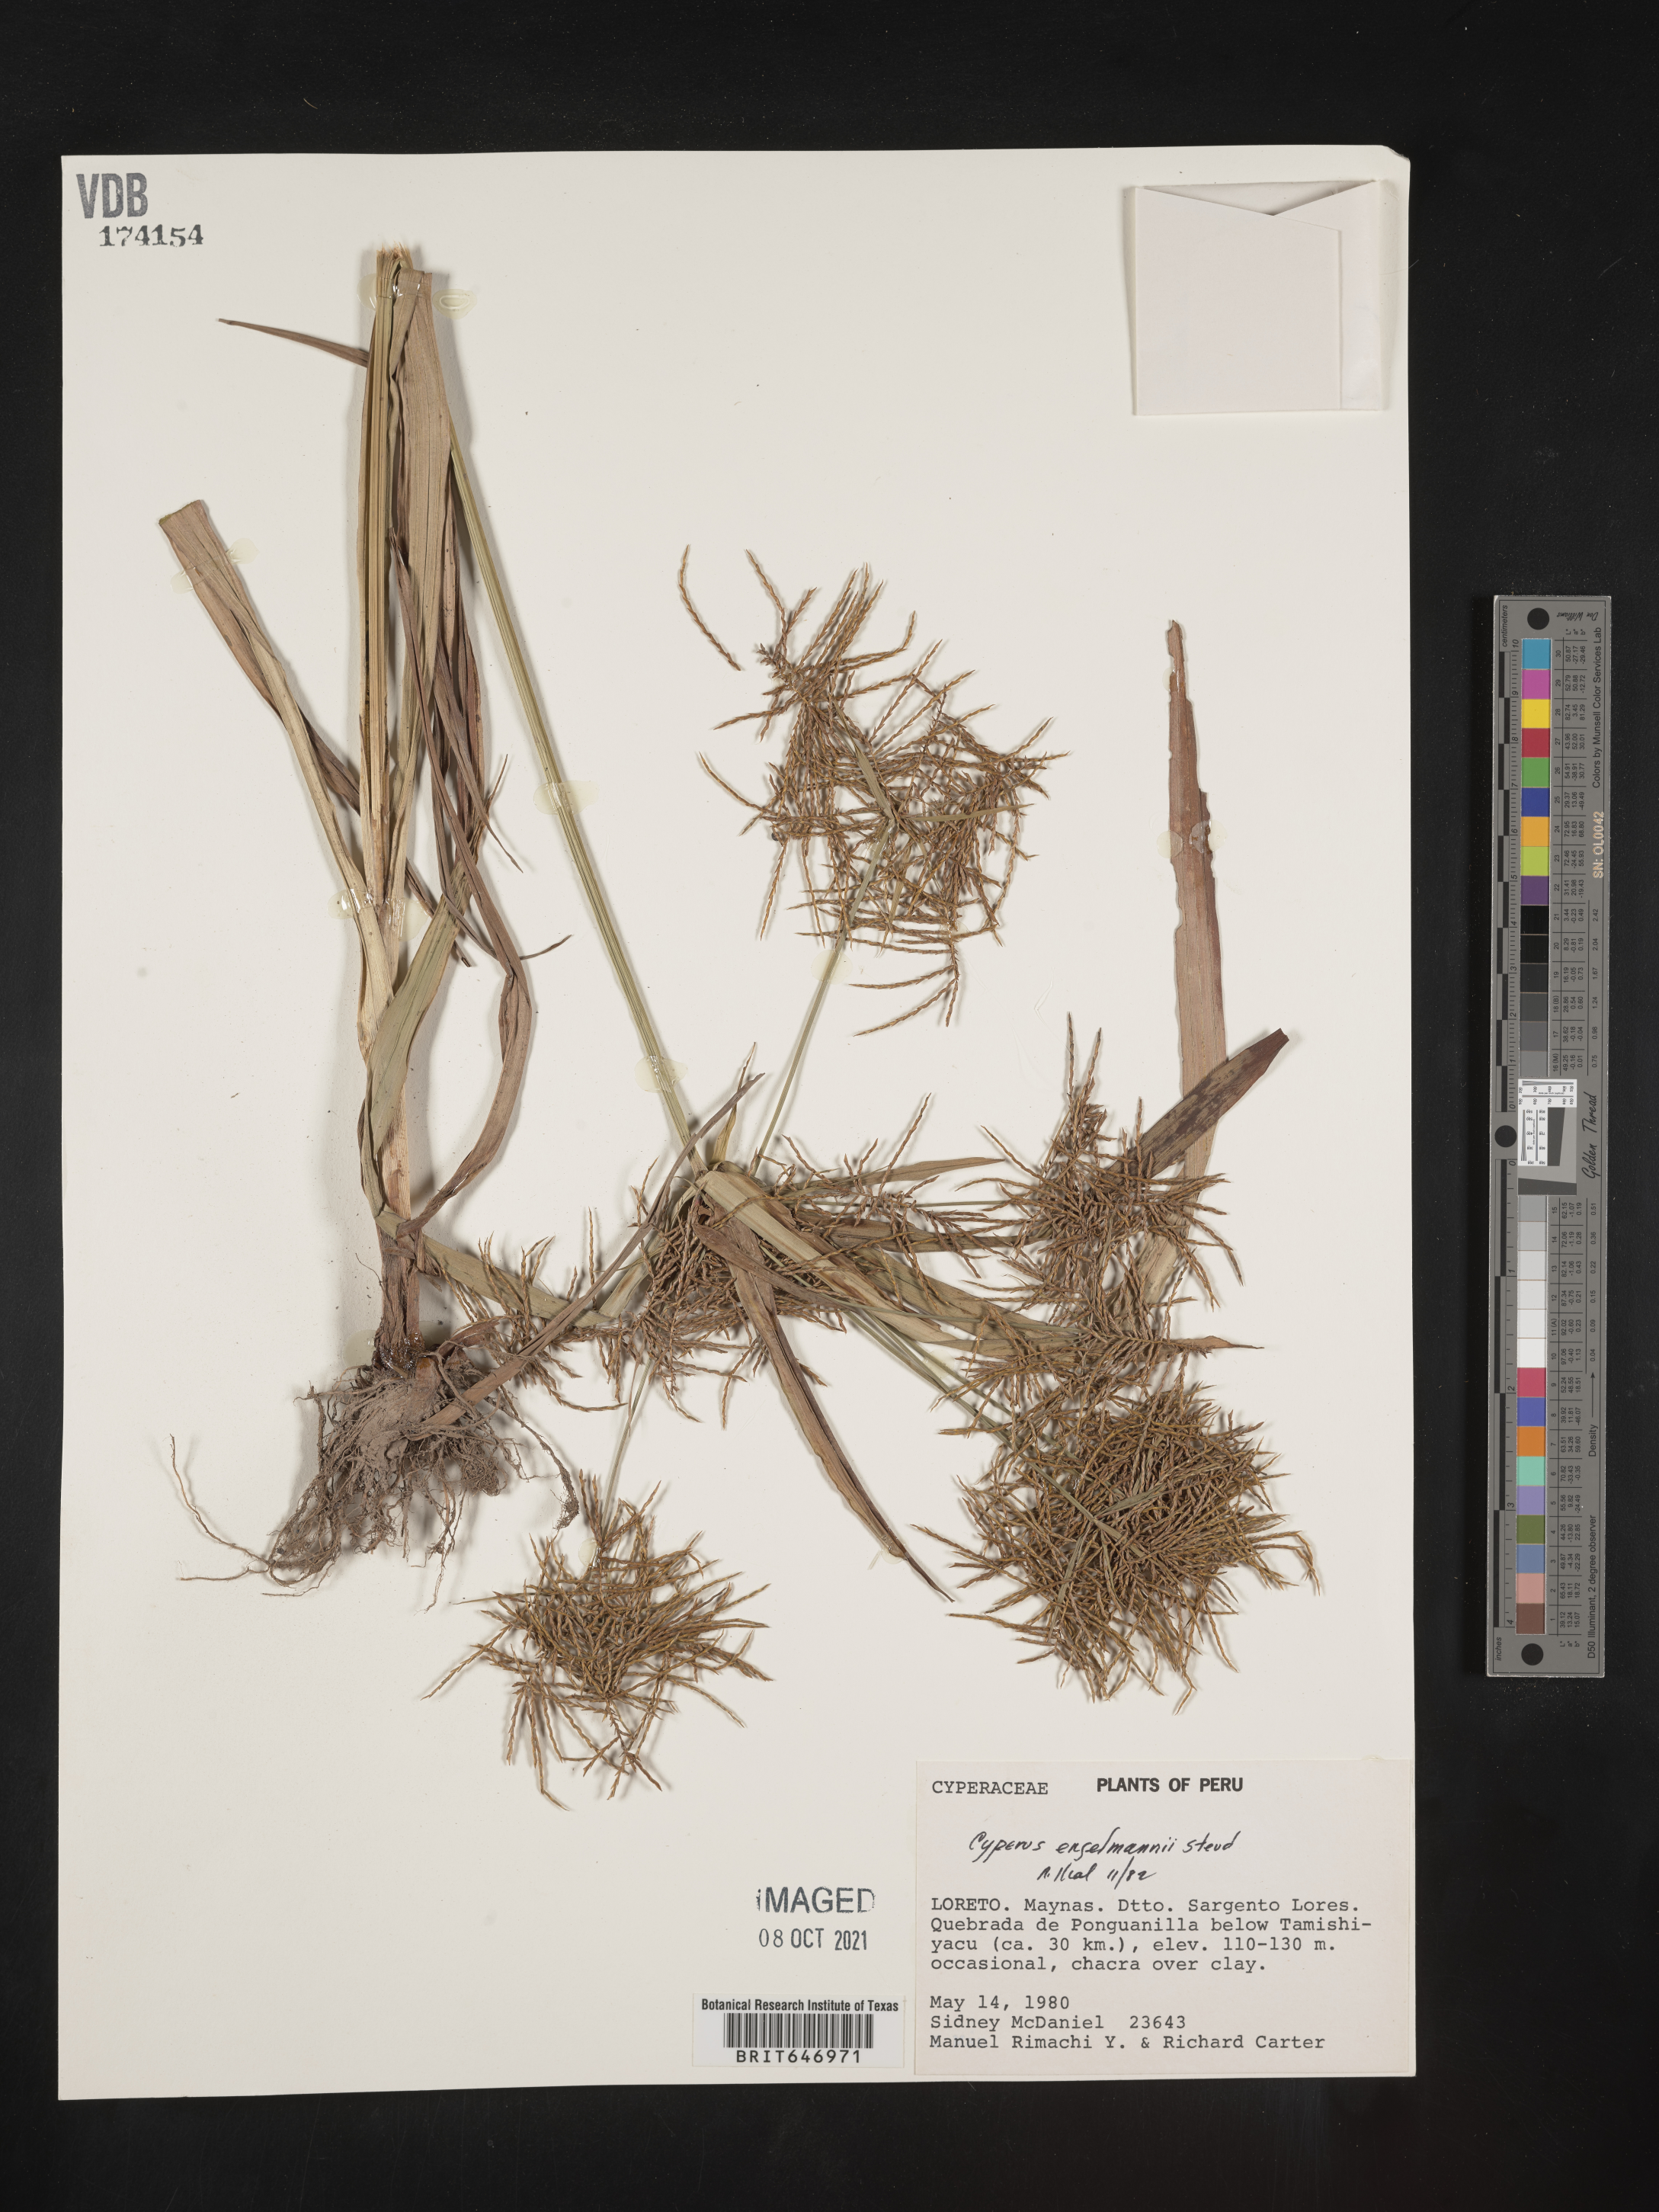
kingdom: Plantae
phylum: Tracheophyta
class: Liliopsida
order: Poales
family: Cyperaceae
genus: Cyperus
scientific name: Cyperus odoratus
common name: Fragrant flatsedge
